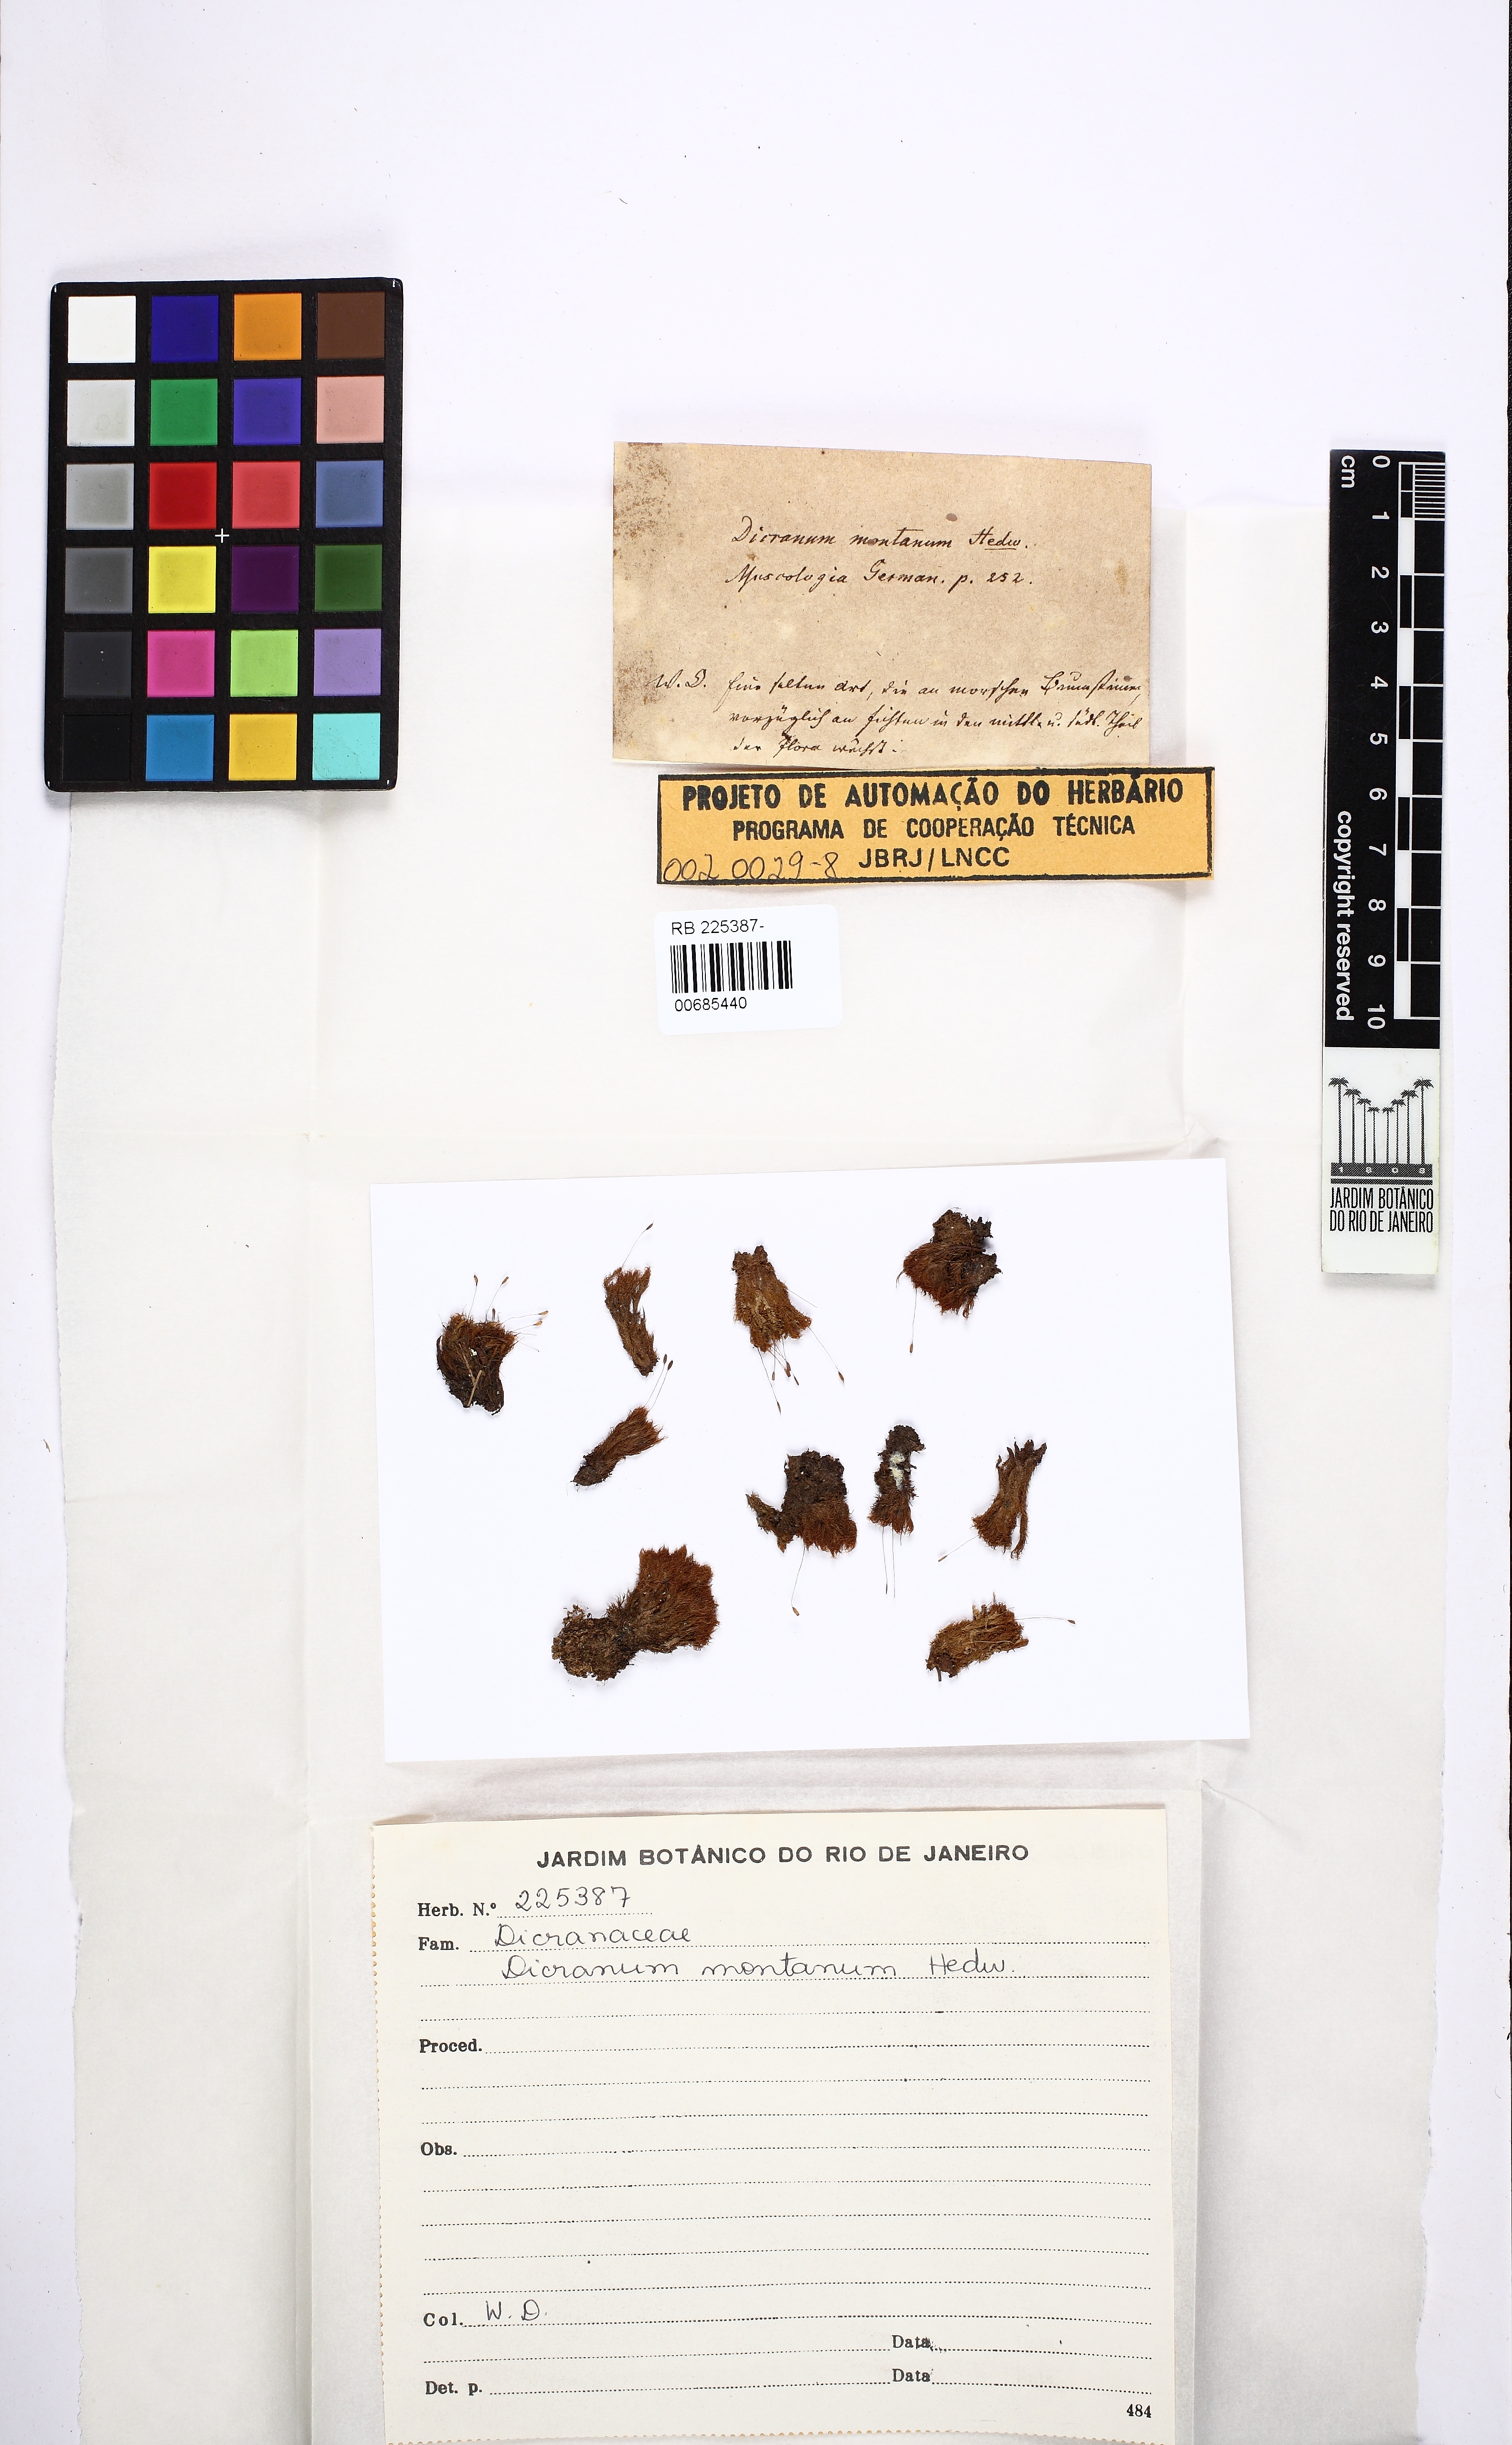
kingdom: Plantae
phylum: Bryophyta
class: Bryopsida
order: Dicranales
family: Dicranaceae
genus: Orthodicranum
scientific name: Orthodicranum montanum
